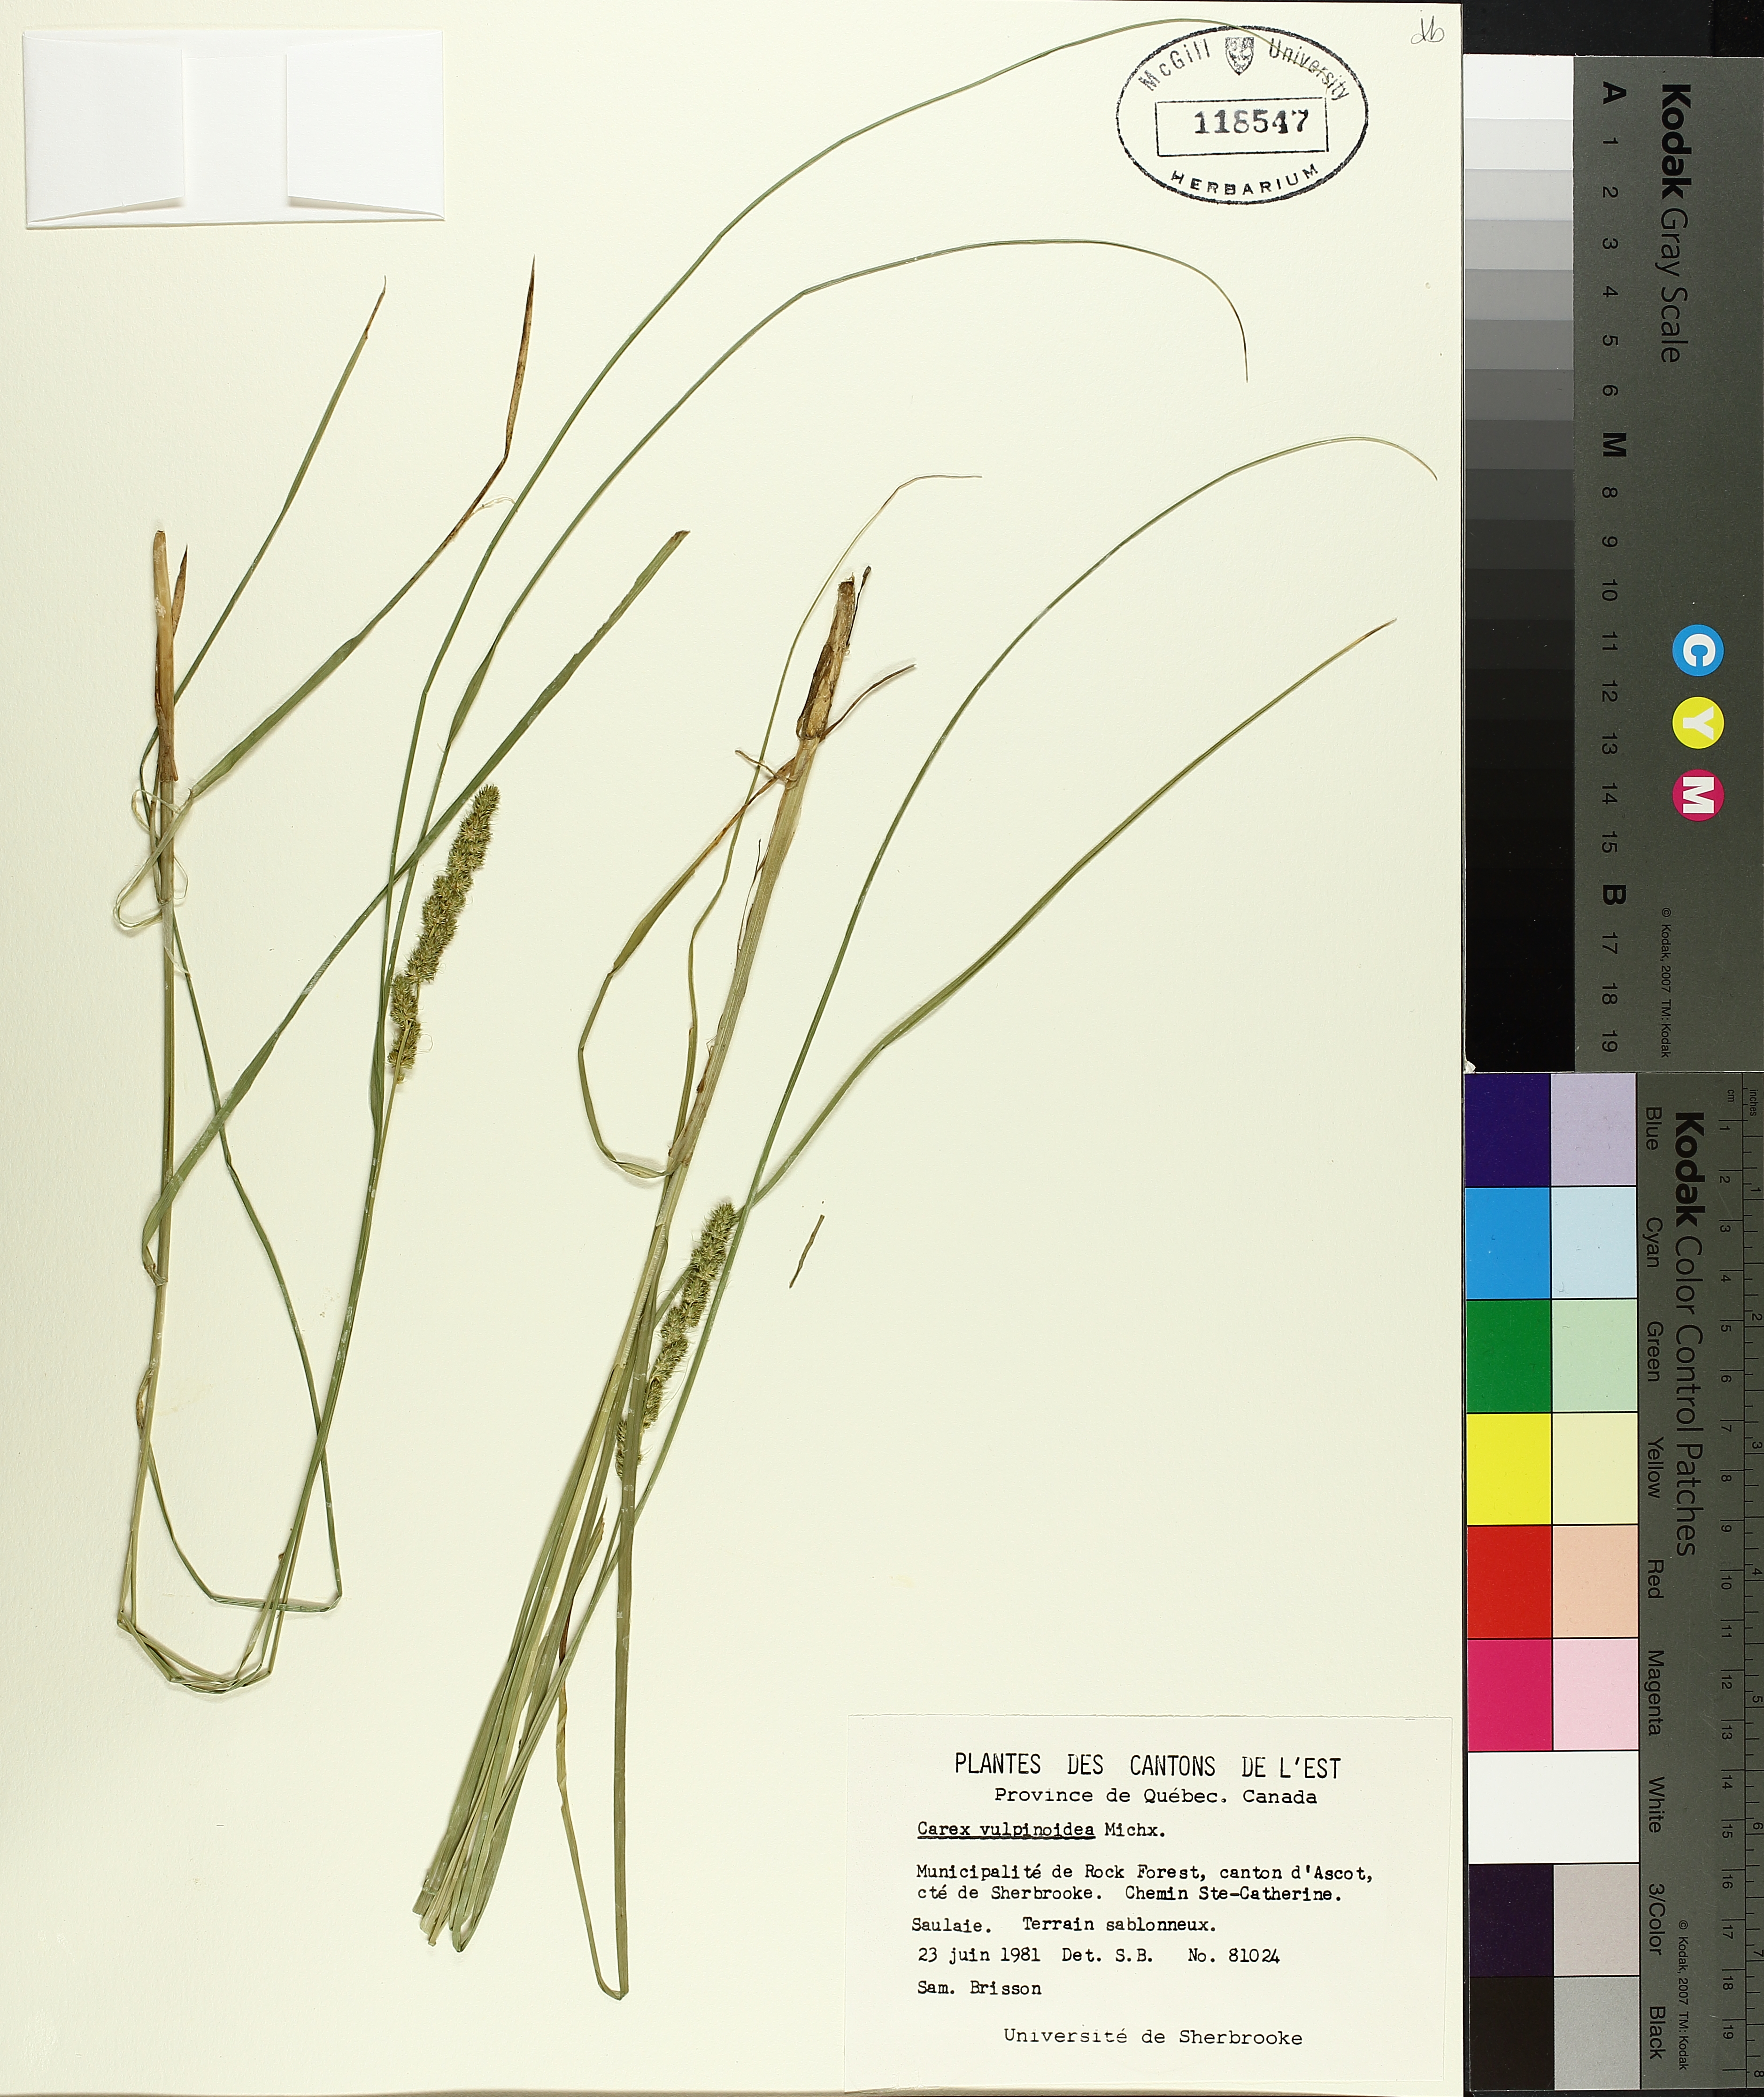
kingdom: Plantae
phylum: Tracheophyta
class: Liliopsida
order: Poales
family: Cyperaceae
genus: Carex
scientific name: Carex vulpinoidea
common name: American fox-sedge
